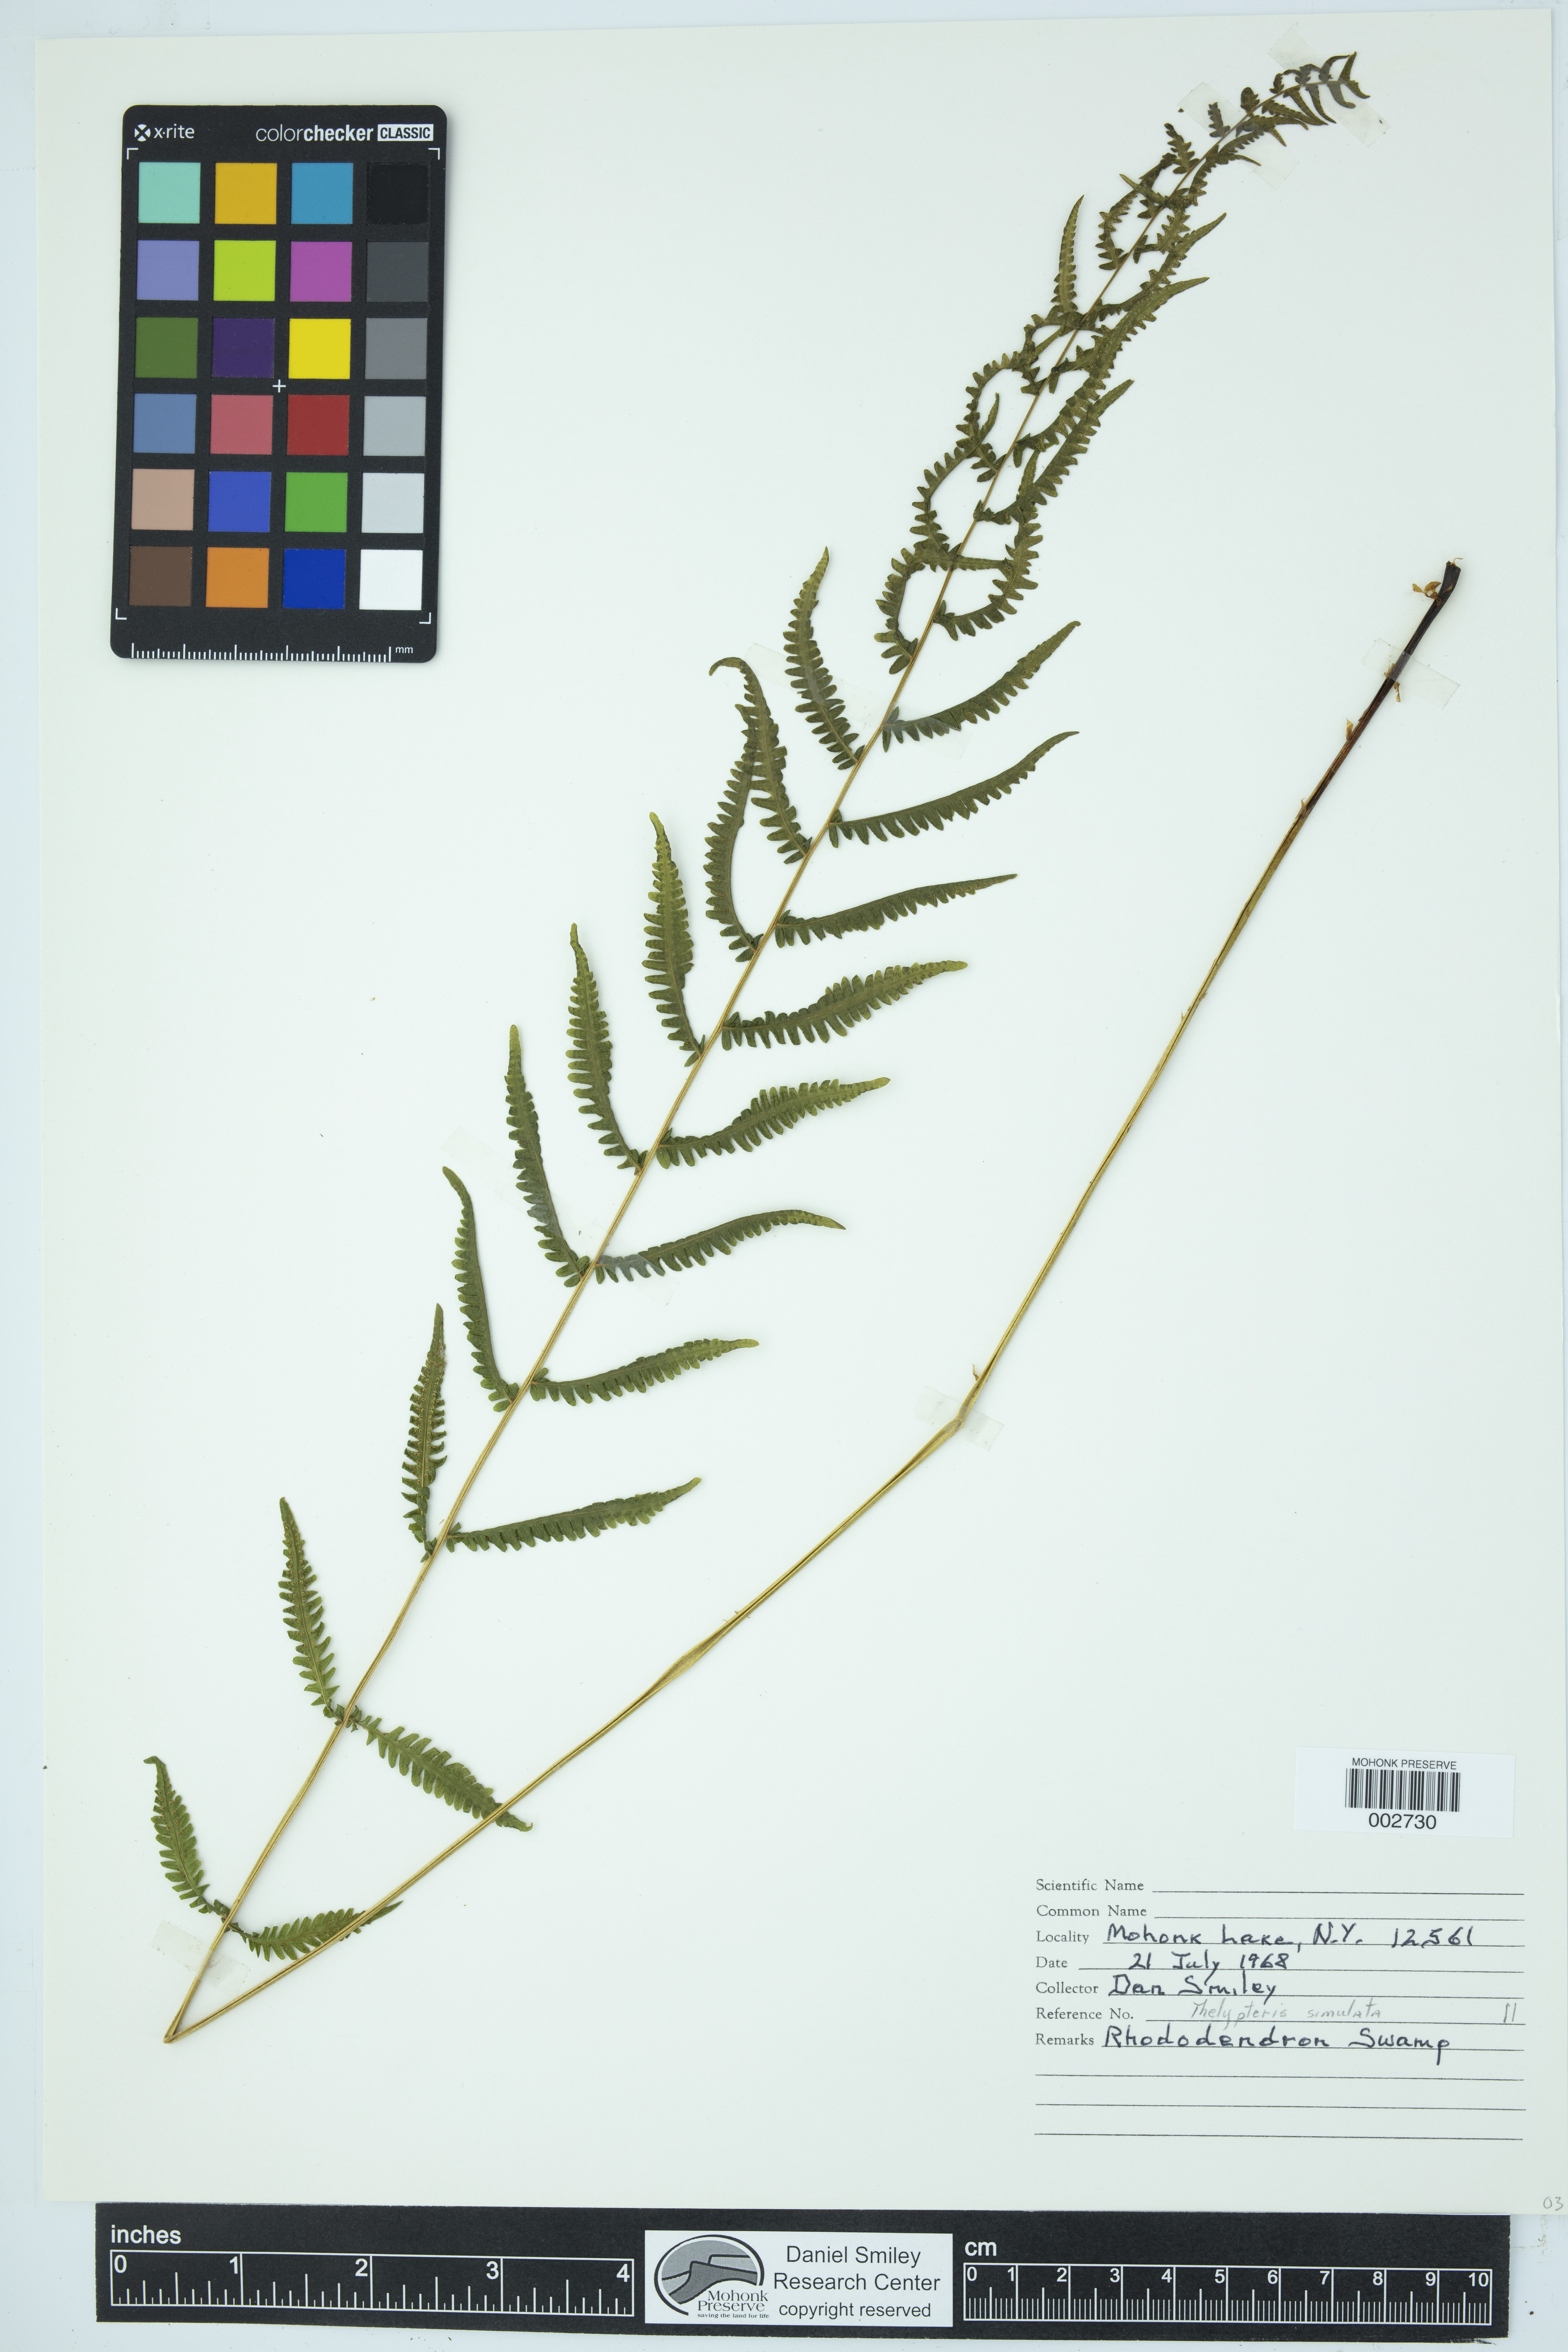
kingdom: Plantae
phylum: Tracheophyta
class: Polypodiopsida
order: Polypodiales
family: Thelypteridaceae
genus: Coryphopteris
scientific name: Coryphopteris simulata
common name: Bog fern
